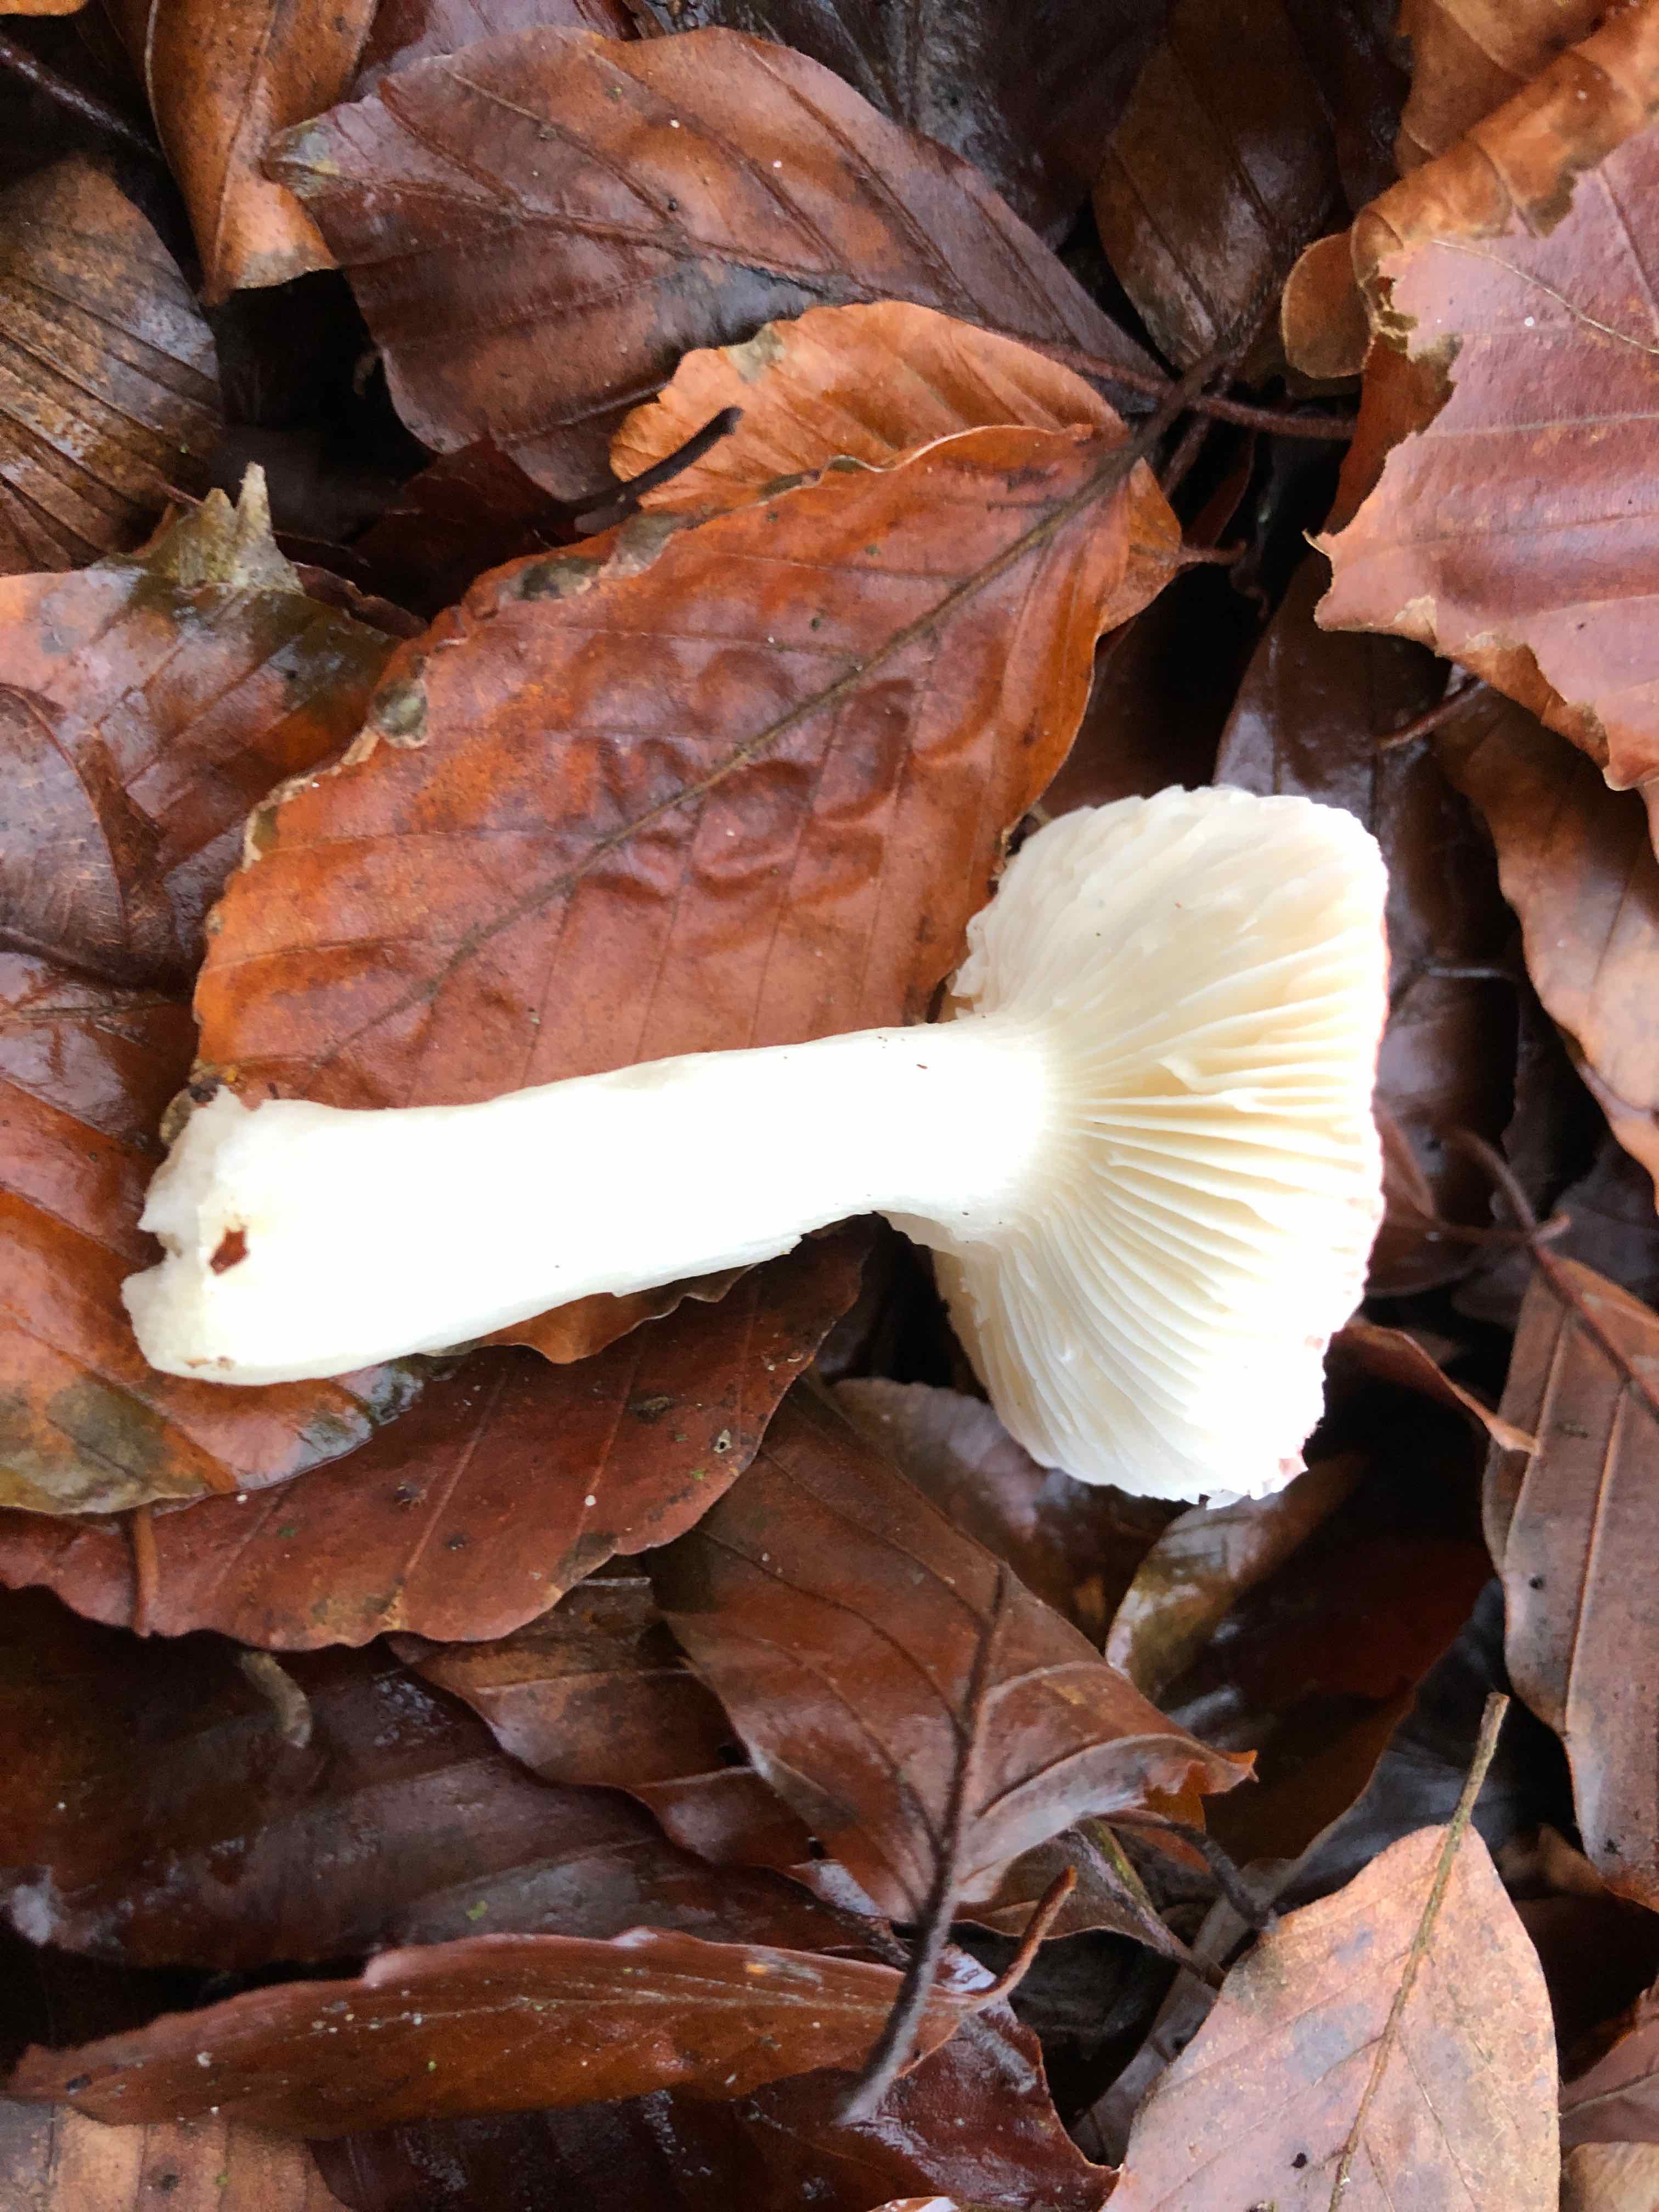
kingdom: Fungi
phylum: Basidiomycota
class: Agaricomycetes
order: Russulales
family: Russulaceae
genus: Russula
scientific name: Russula
